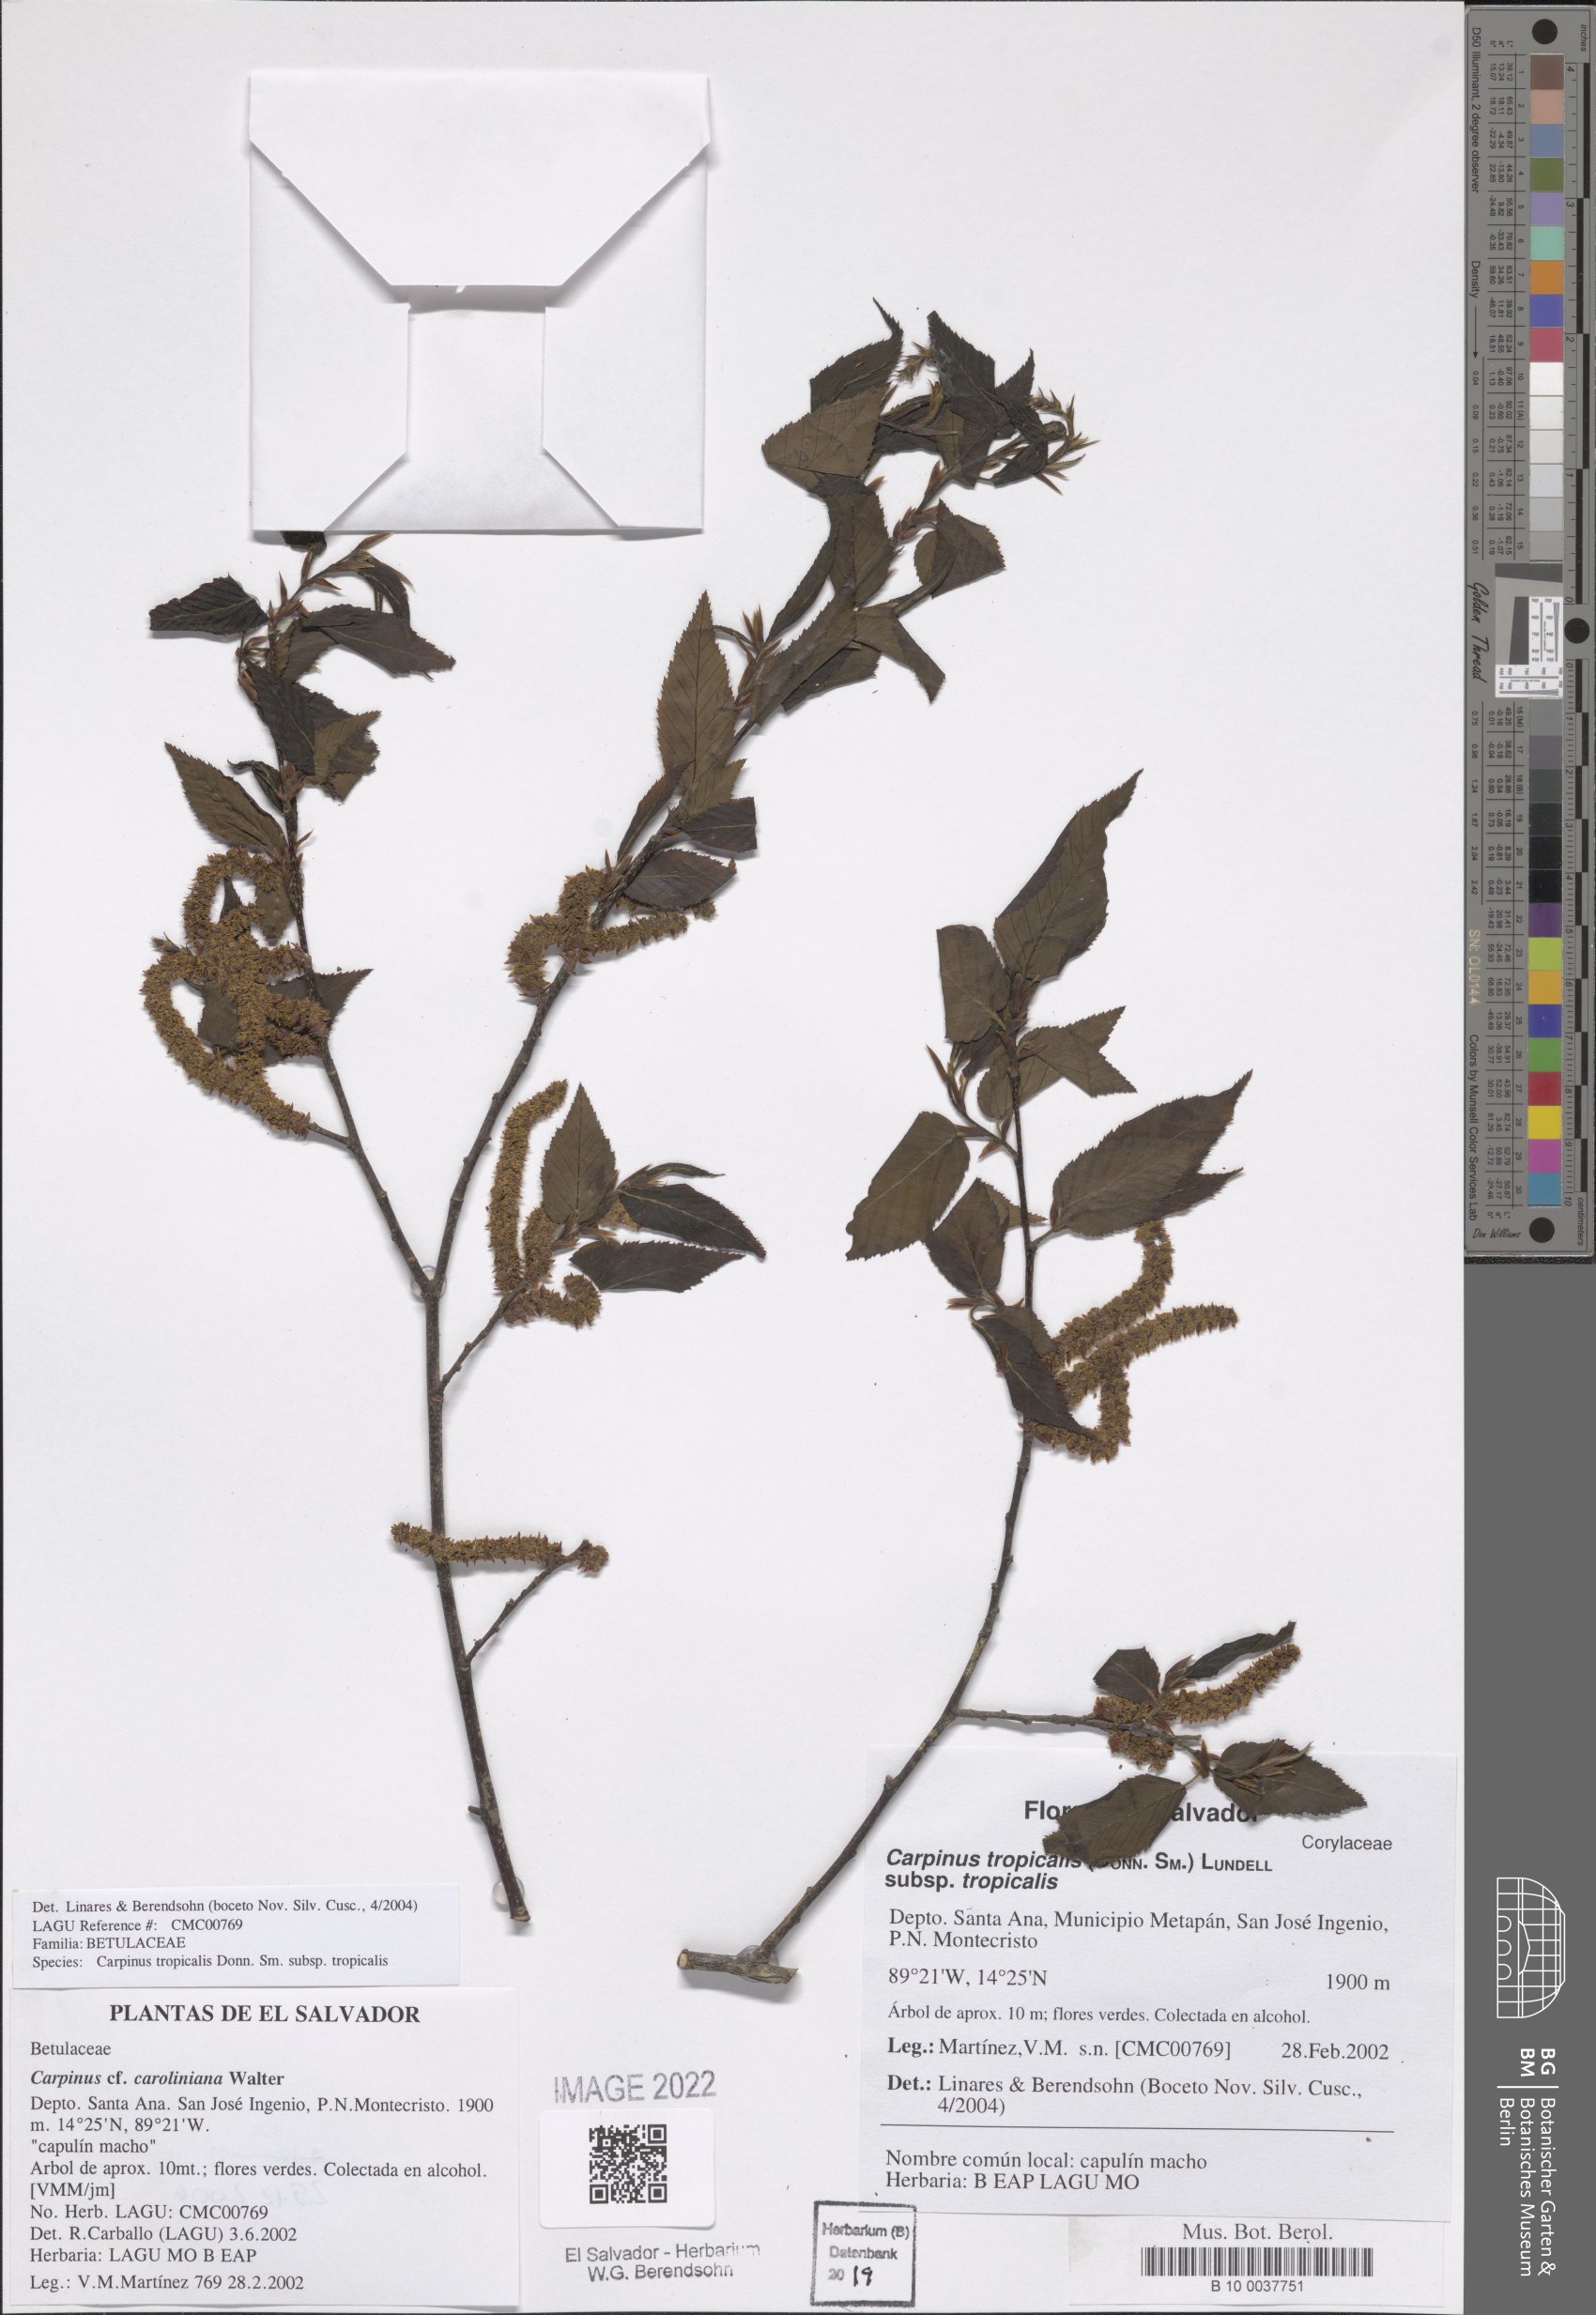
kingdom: Plantae
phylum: Tracheophyta
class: Magnoliopsida
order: Fagales
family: Betulaceae
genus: Carpinus
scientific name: Carpinus tropicalis
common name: Hornbeam
